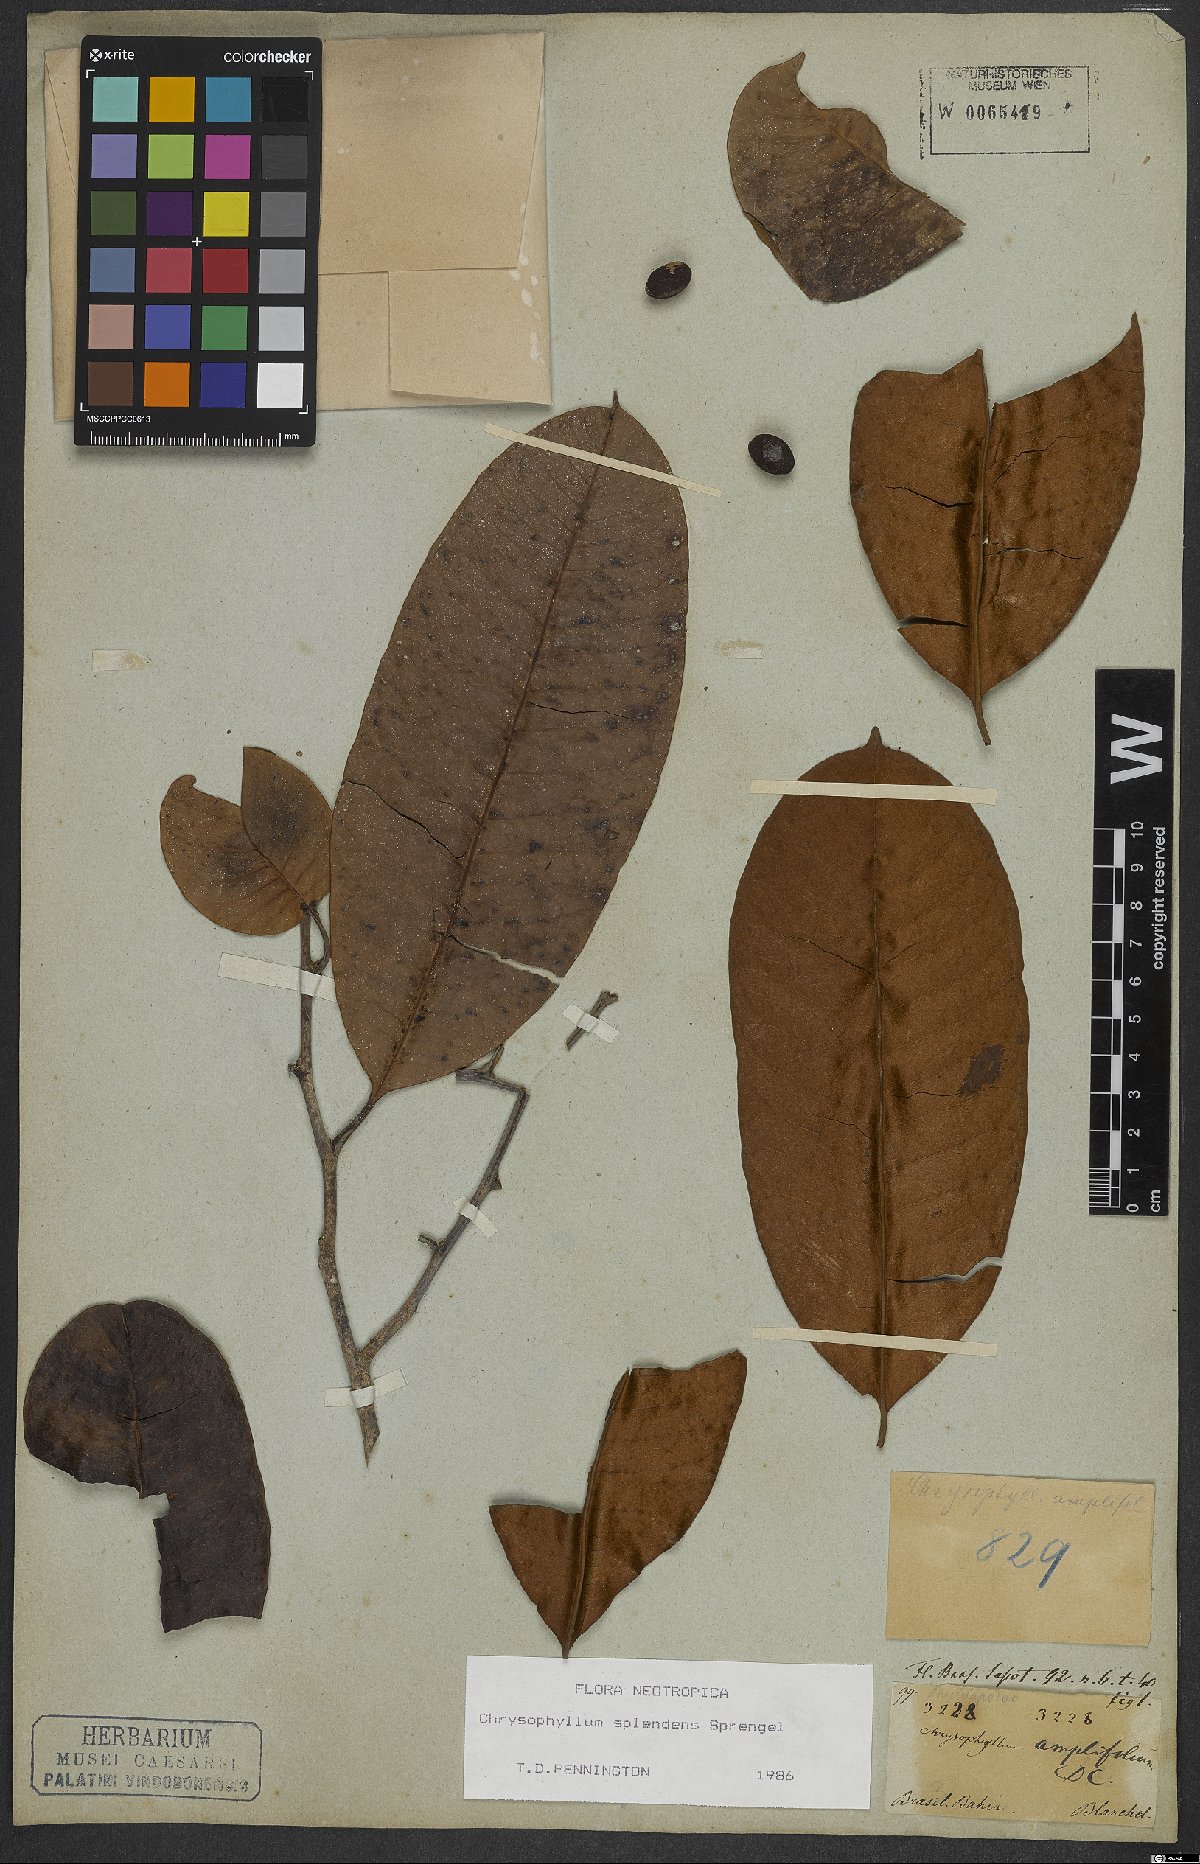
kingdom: Plantae
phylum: Tracheophyta
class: Magnoliopsida
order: Ericales
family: Sapotaceae
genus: Chrysophyllum
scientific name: Chrysophyllum splendens
